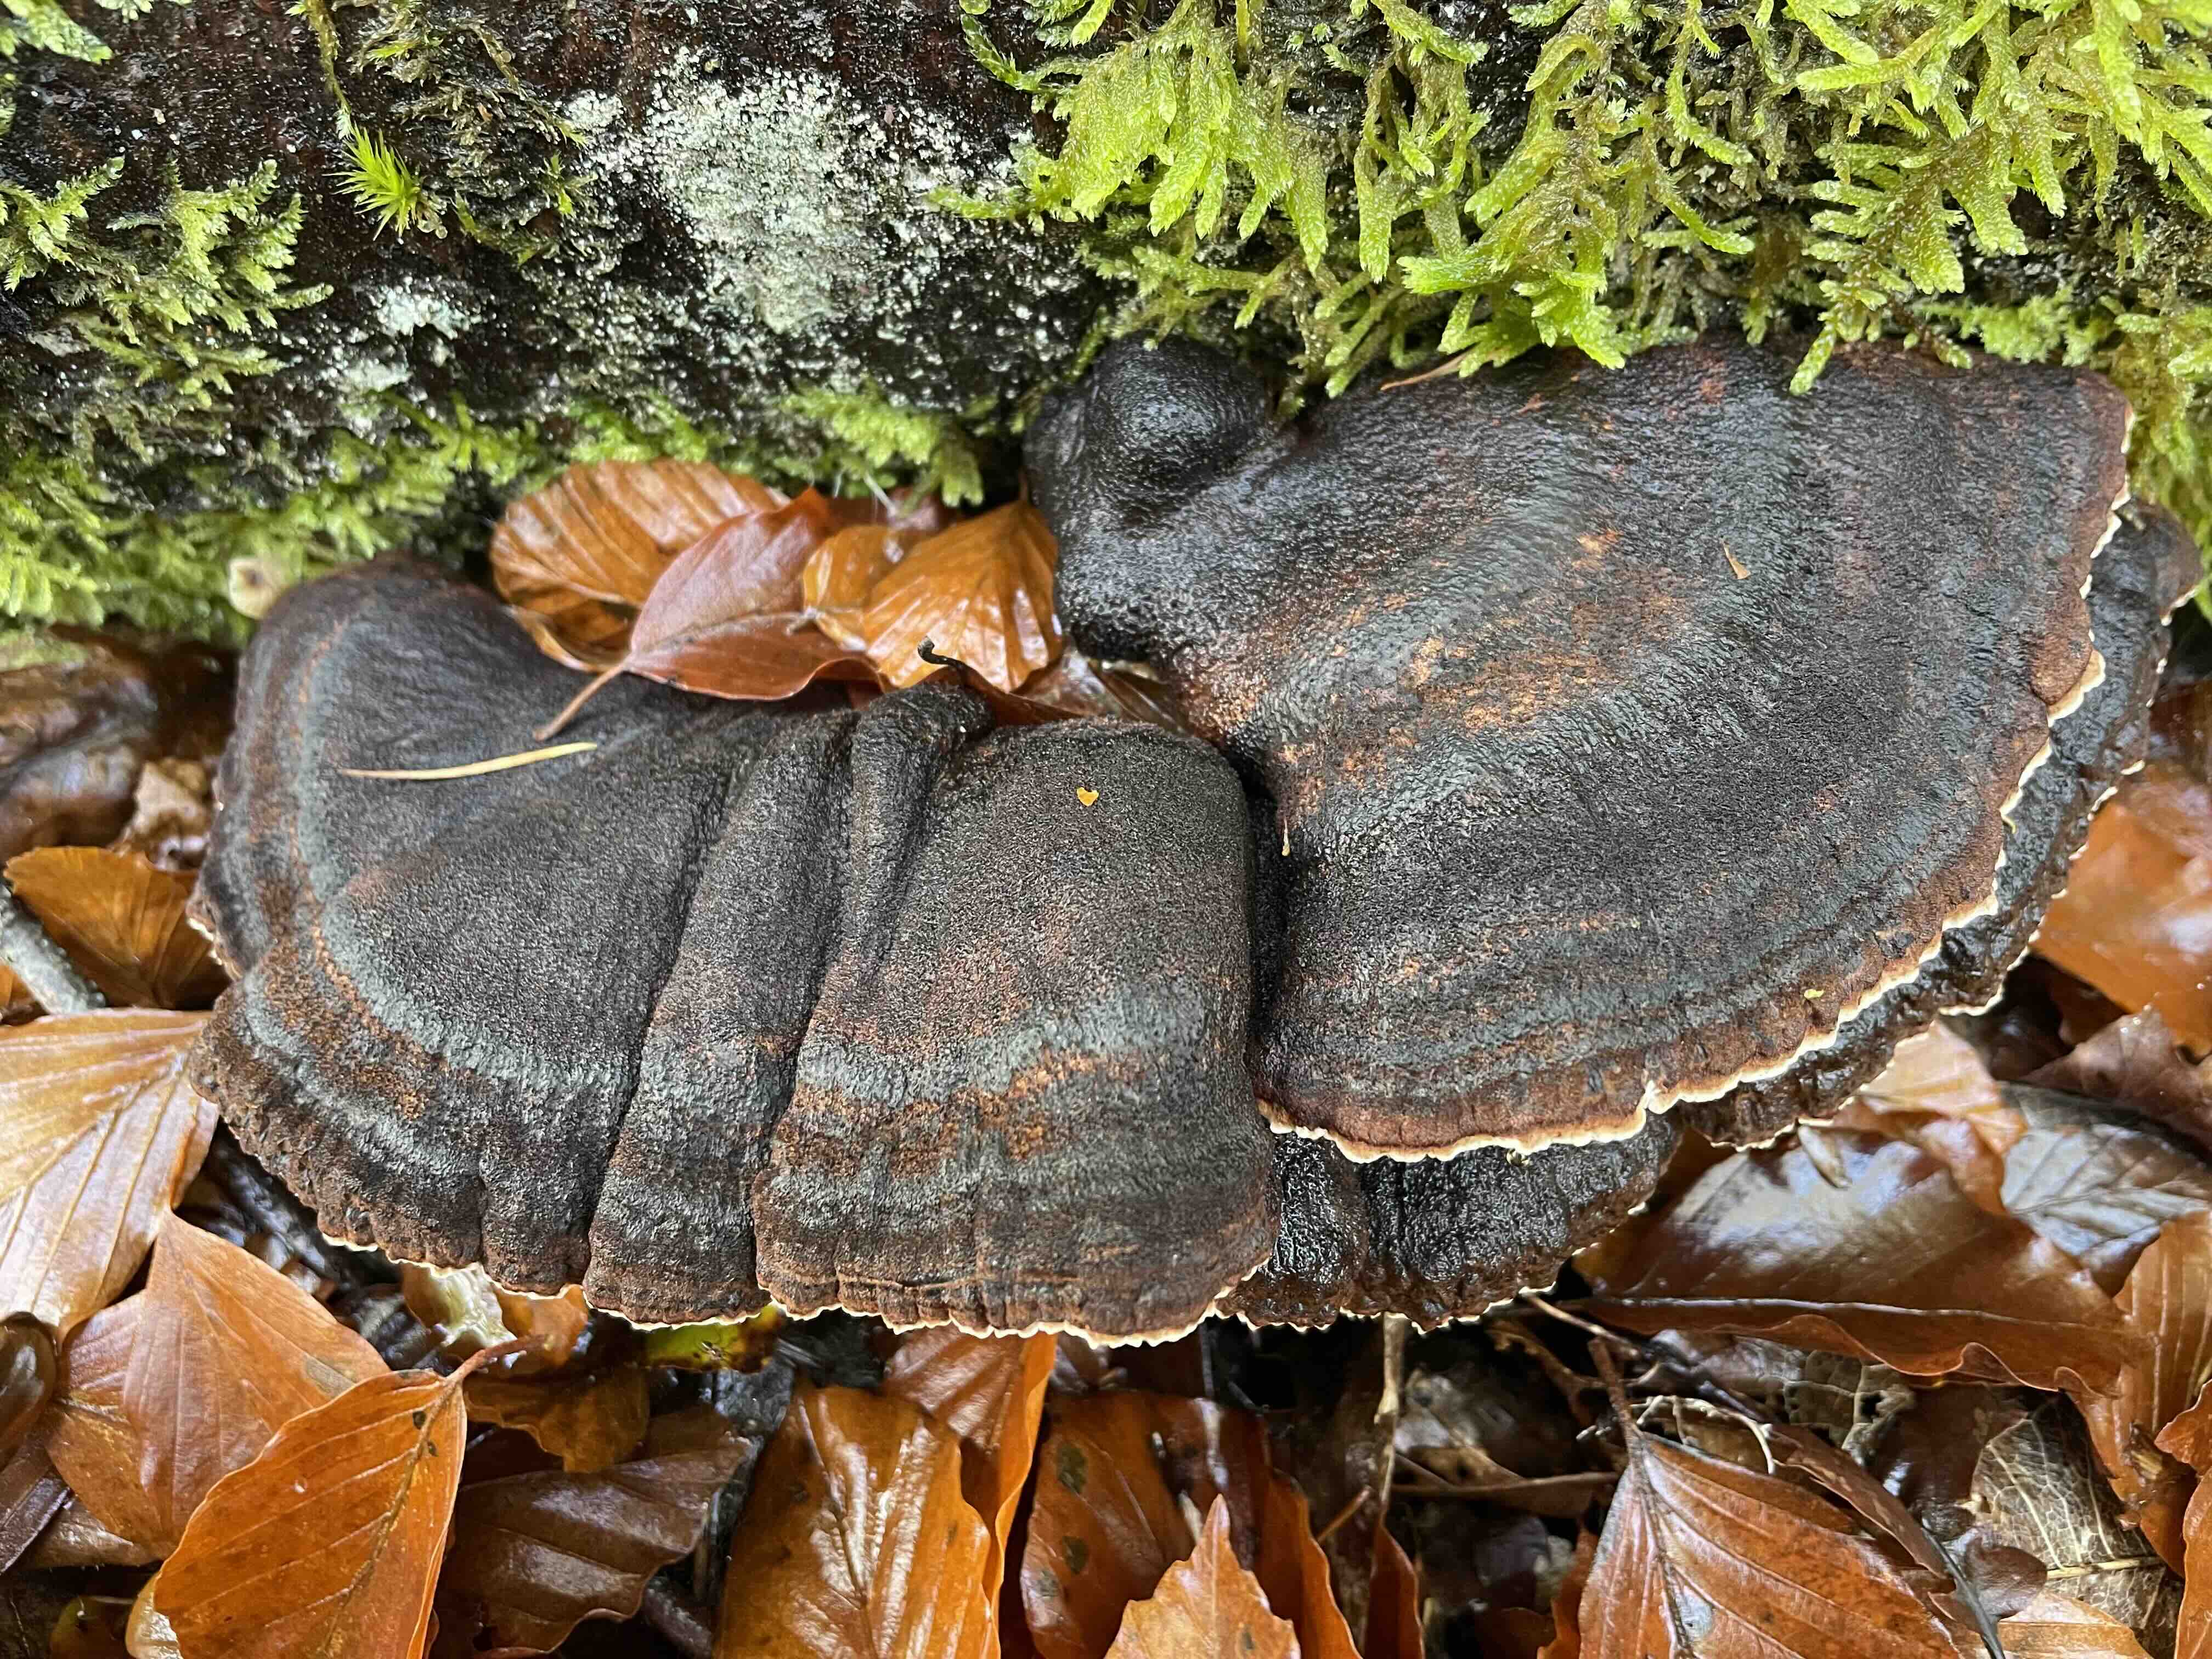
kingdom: Fungi
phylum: Basidiomycota
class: Agaricomycetes
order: Polyporales
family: Ischnodermataceae
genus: Ischnoderma
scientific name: Ischnoderma benzoinum
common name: gran-tjæreporesvamp
